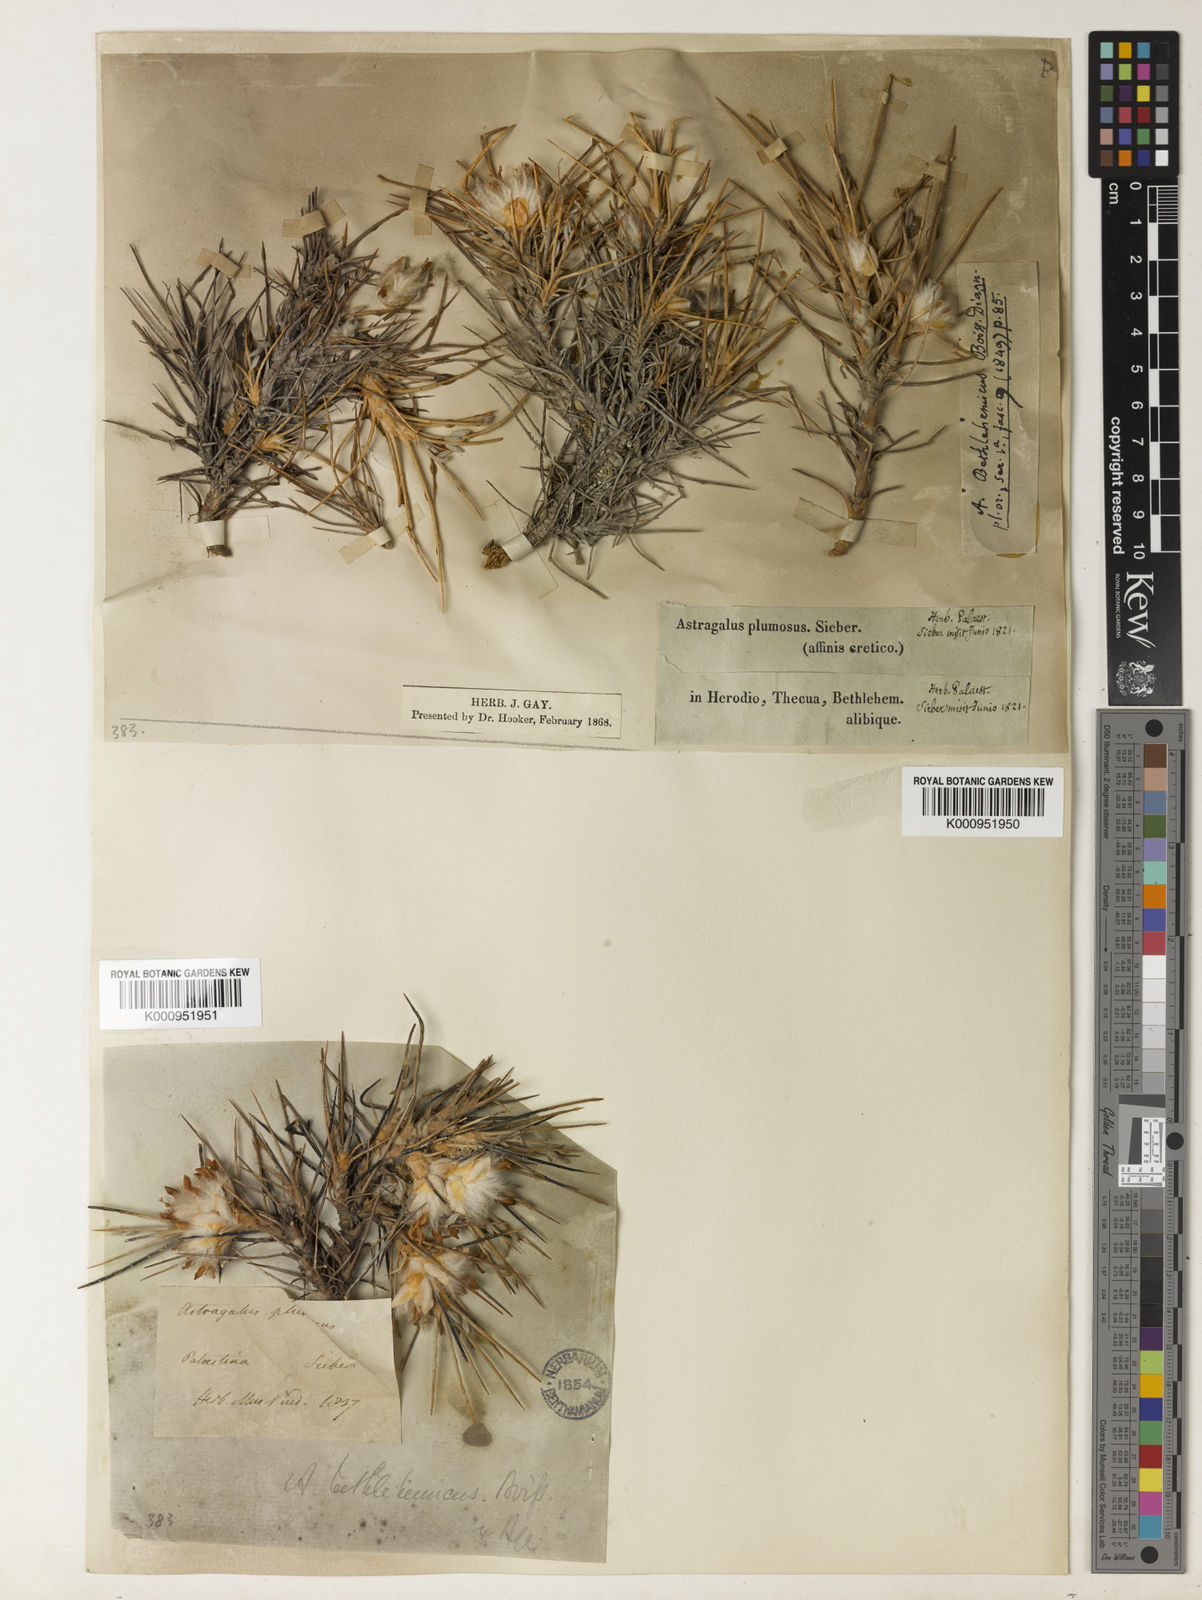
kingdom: Plantae
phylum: Tracheophyta
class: Magnoliopsida
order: Fabales
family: Fabaceae
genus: Astragalus
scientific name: Astragalus bethlehemiticus
